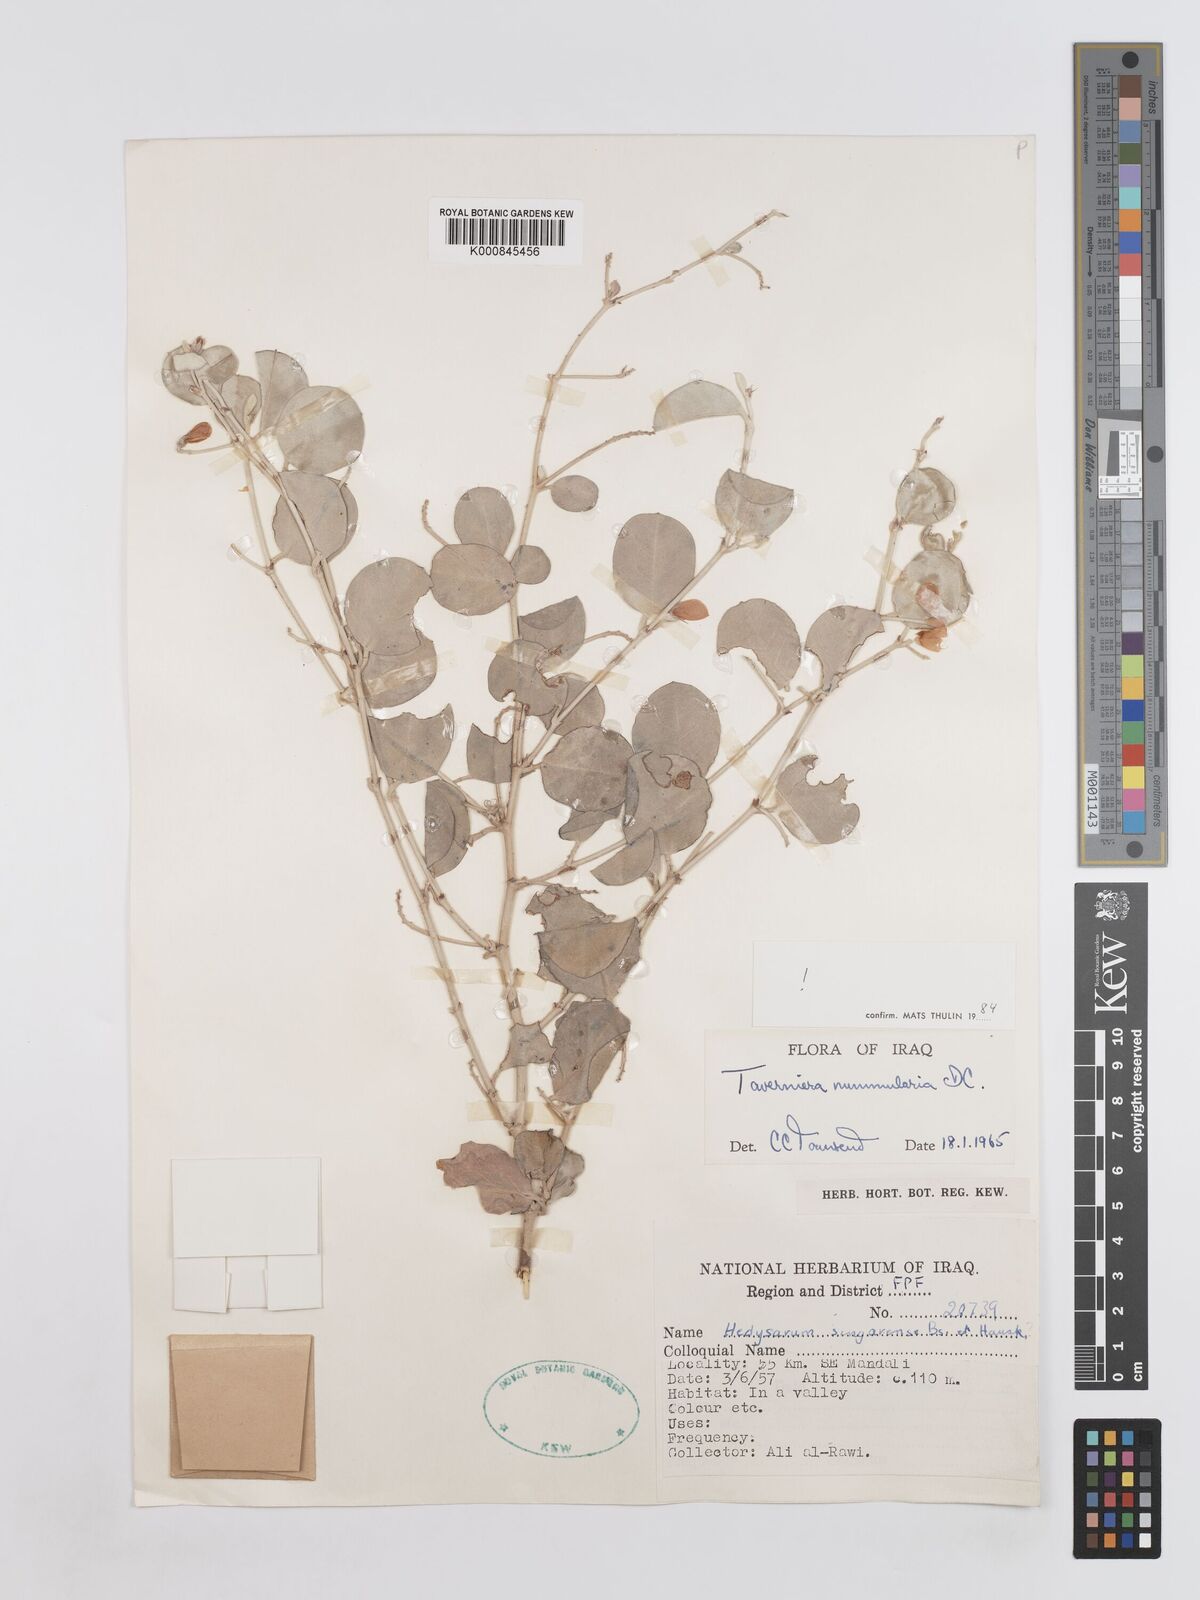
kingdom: Plantae
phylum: Tracheophyta
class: Magnoliopsida
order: Fabales
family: Fabaceae
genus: Taverniera
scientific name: Taverniera nummularia
